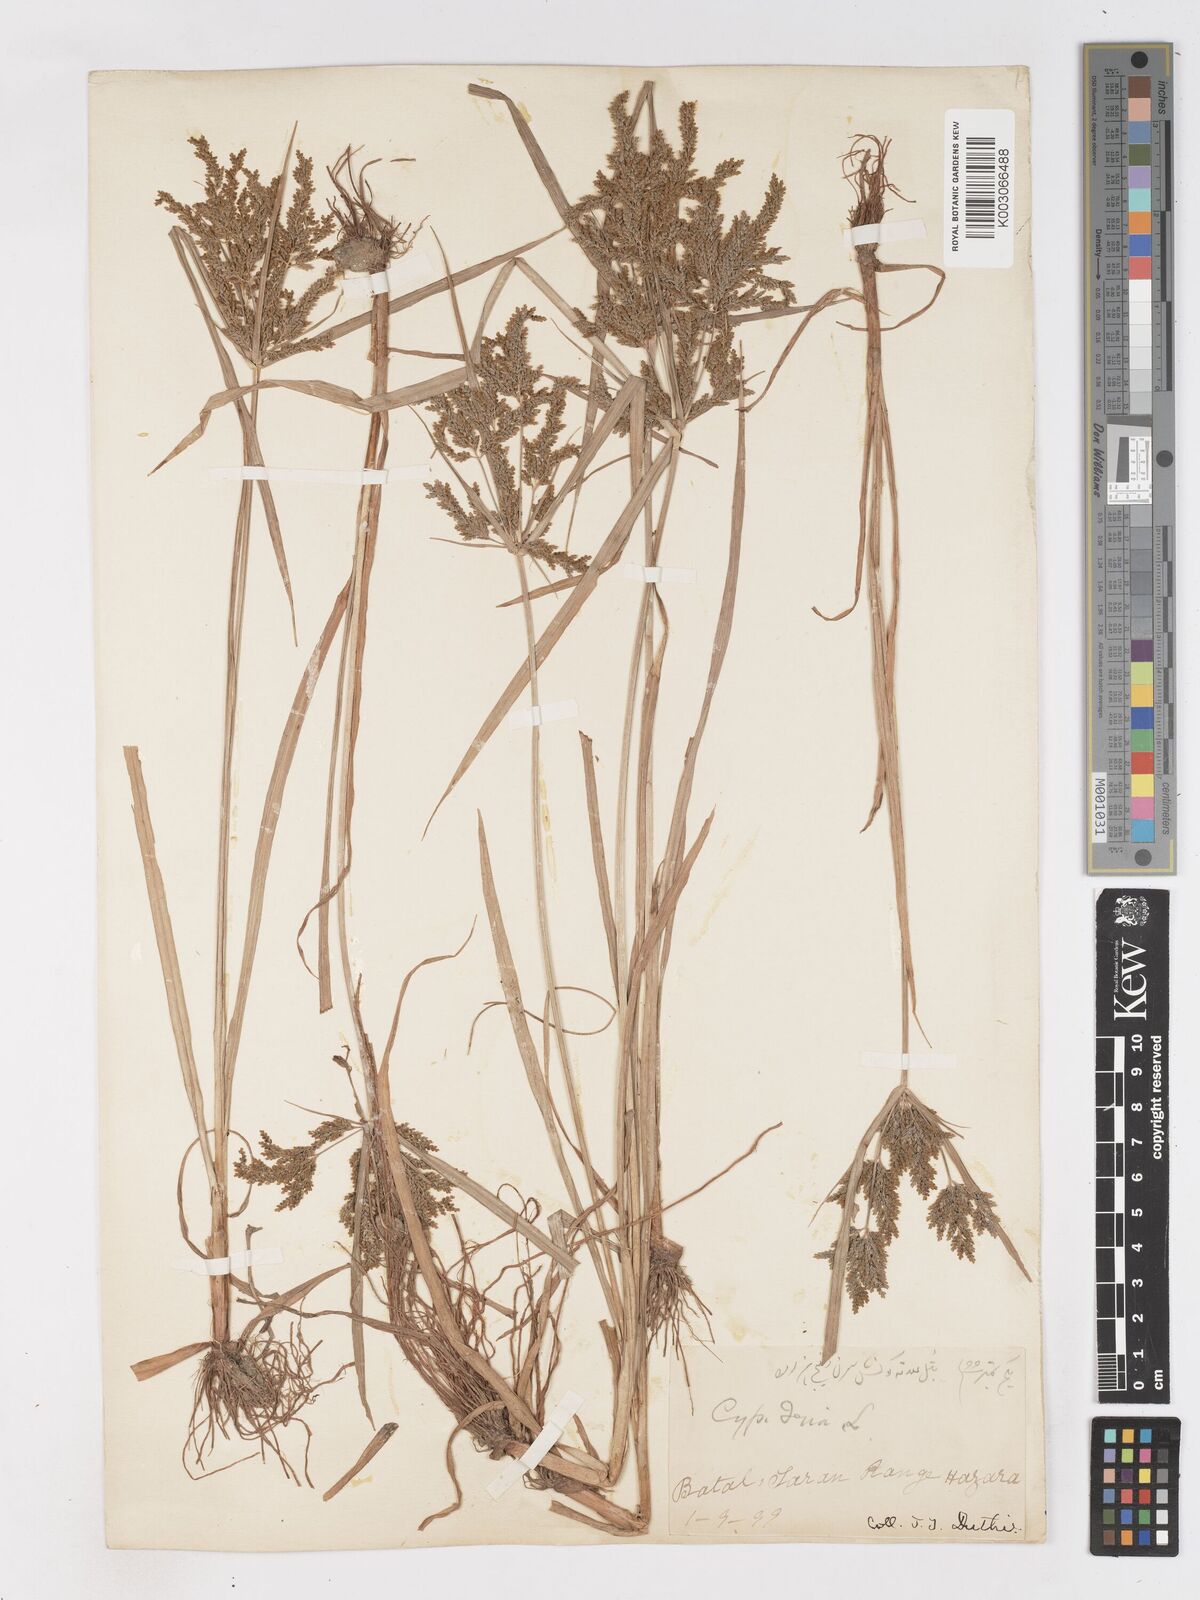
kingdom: Plantae
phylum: Tracheophyta
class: Liliopsida
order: Poales
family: Cyperaceae
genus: Cyperus
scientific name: Cyperus iria
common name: Ricefield flatsedge
